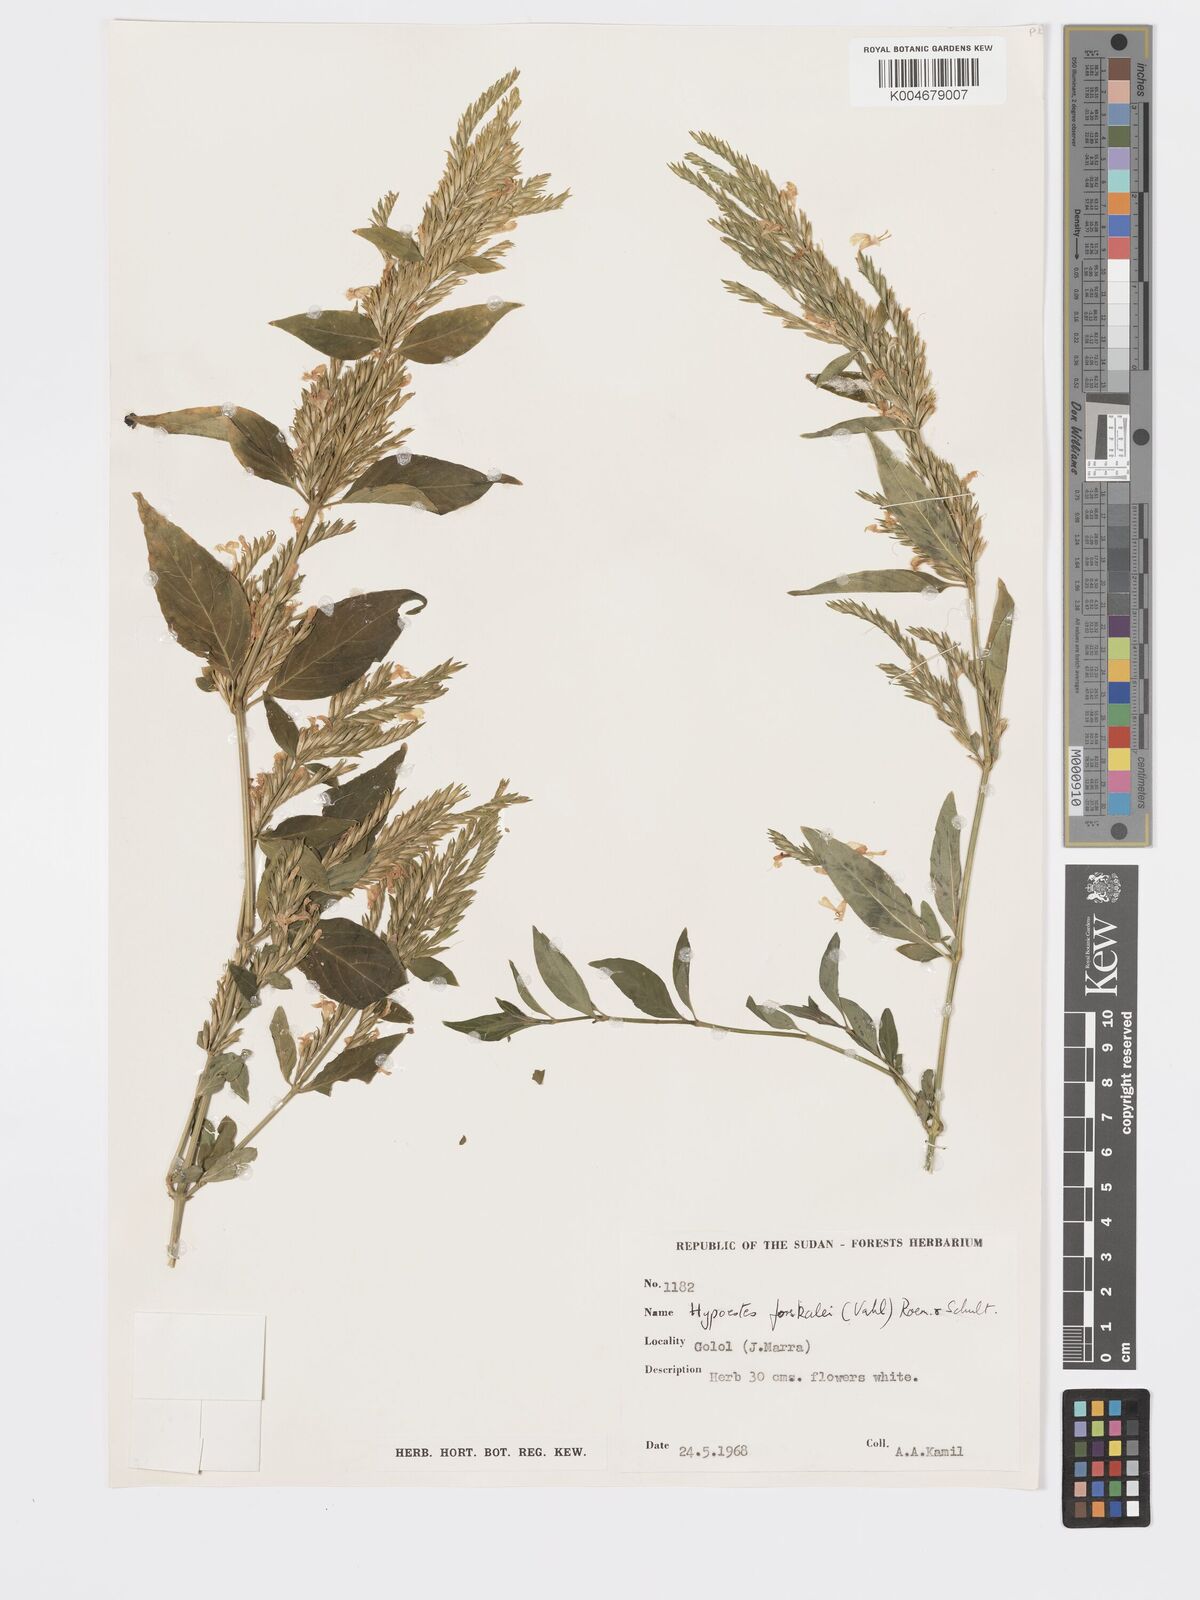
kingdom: Plantae
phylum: Tracheophyta
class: Magnoliopsida
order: Lamiales
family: Acanthaceae
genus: Hypoestes
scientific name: Hypoestes forskaolii
